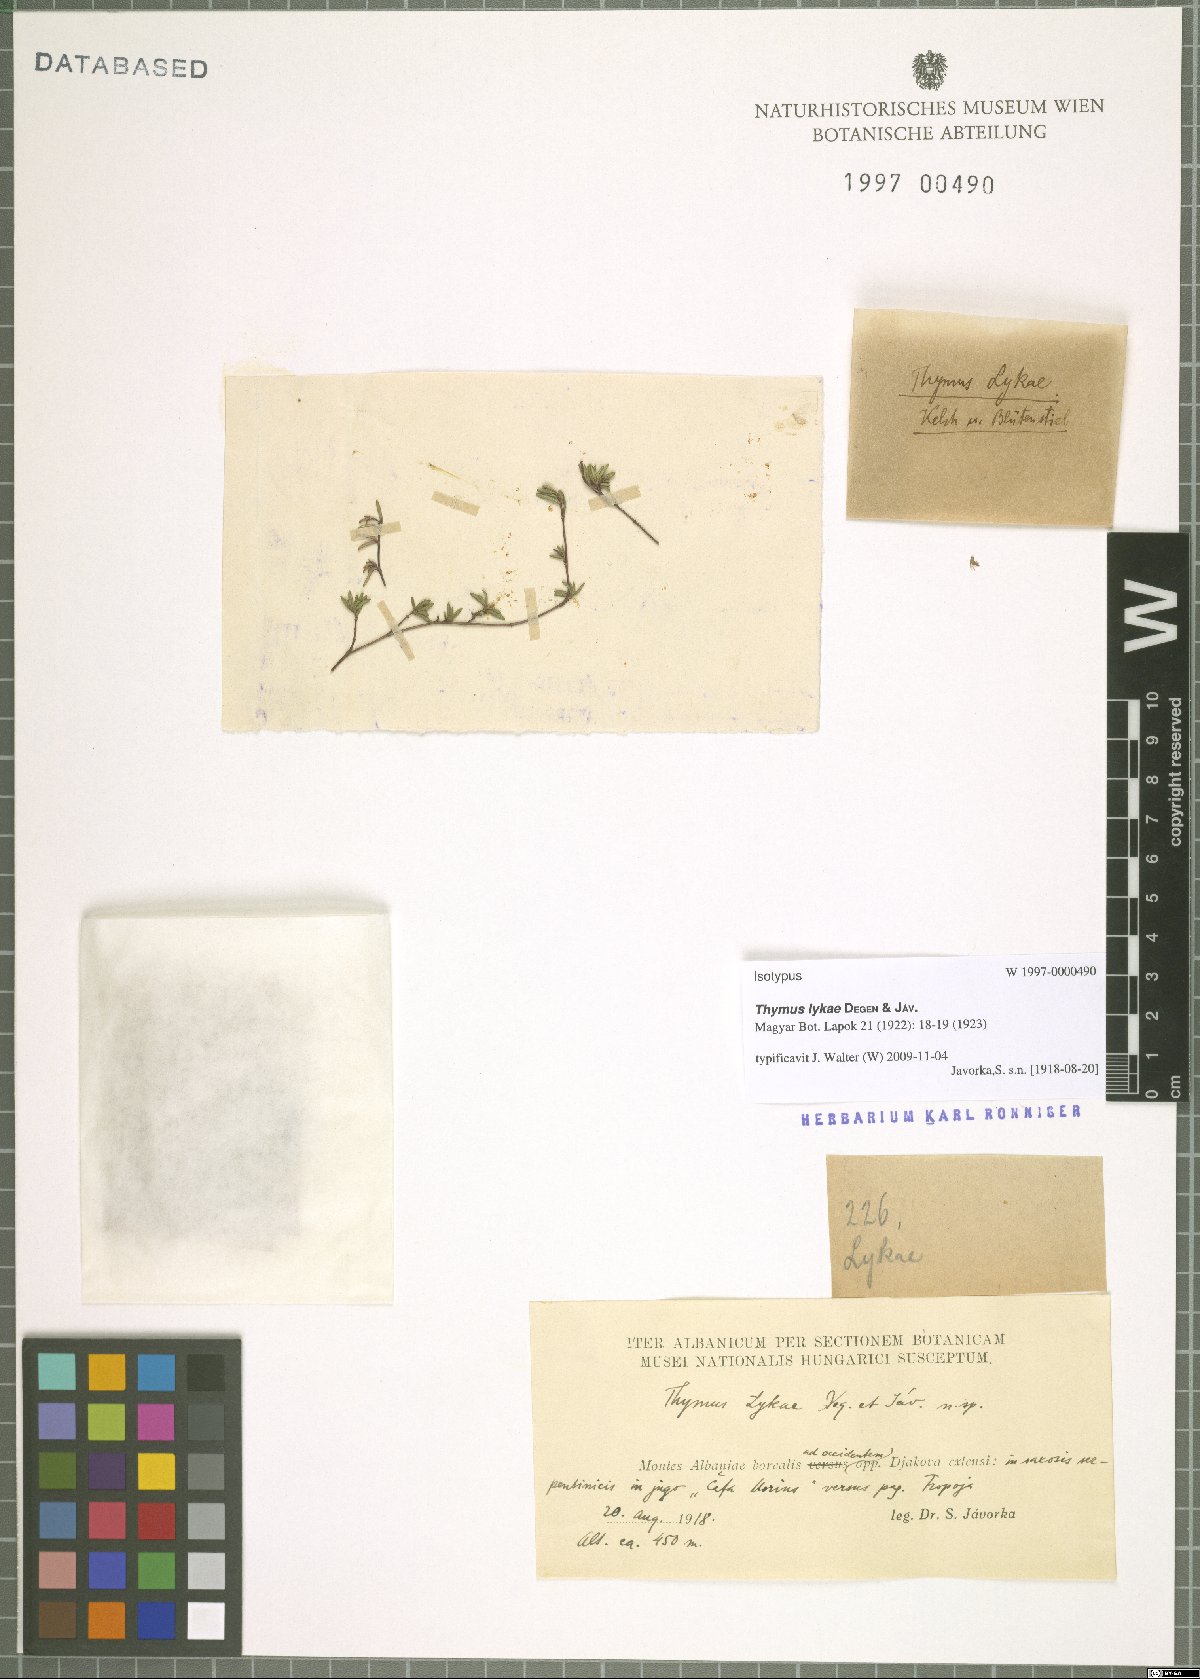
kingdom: Plantae
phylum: Tracheophyta
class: Magnoliopsida
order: Lamiales
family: Lamiaceae
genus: Thymus
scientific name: Thymus longicaulis
